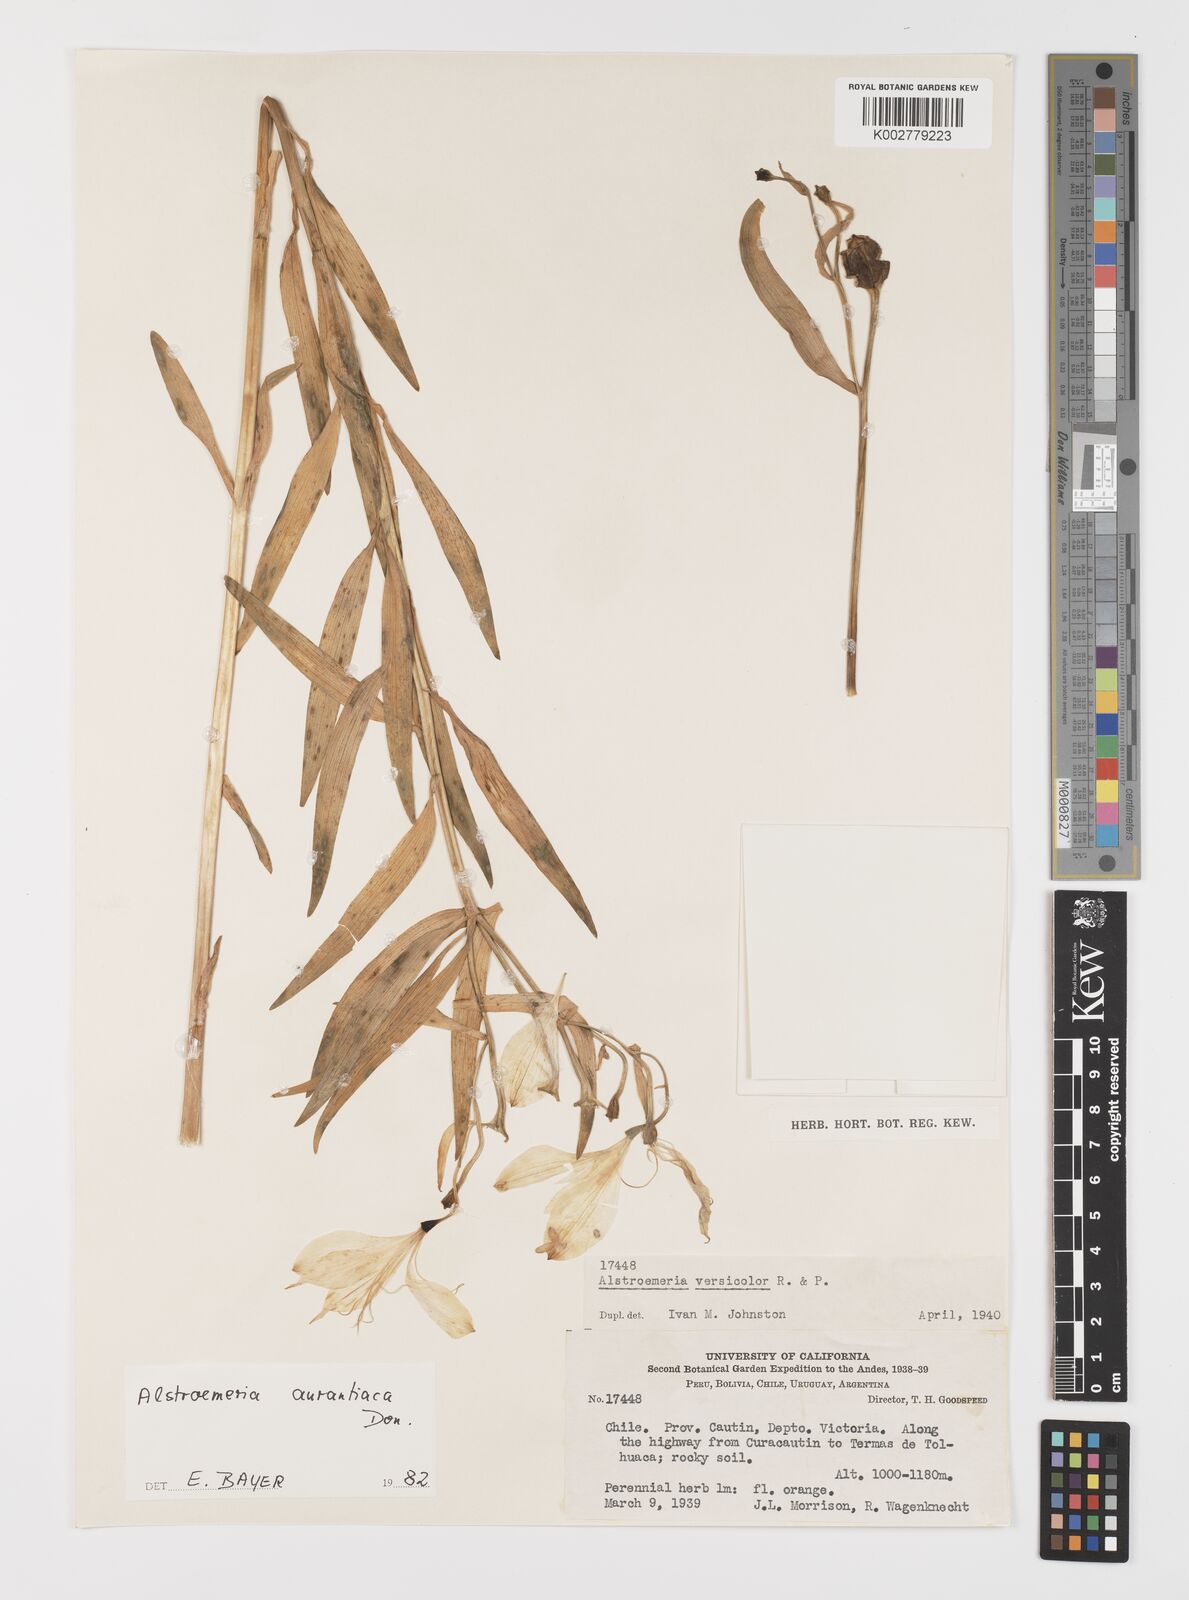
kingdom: Plantae
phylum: Tracheophyta
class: Liliopsida
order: Liliales
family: Alstroemeriaceae
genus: Alstroemeria
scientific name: Alstroemeria aurea
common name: Peruvian lily
